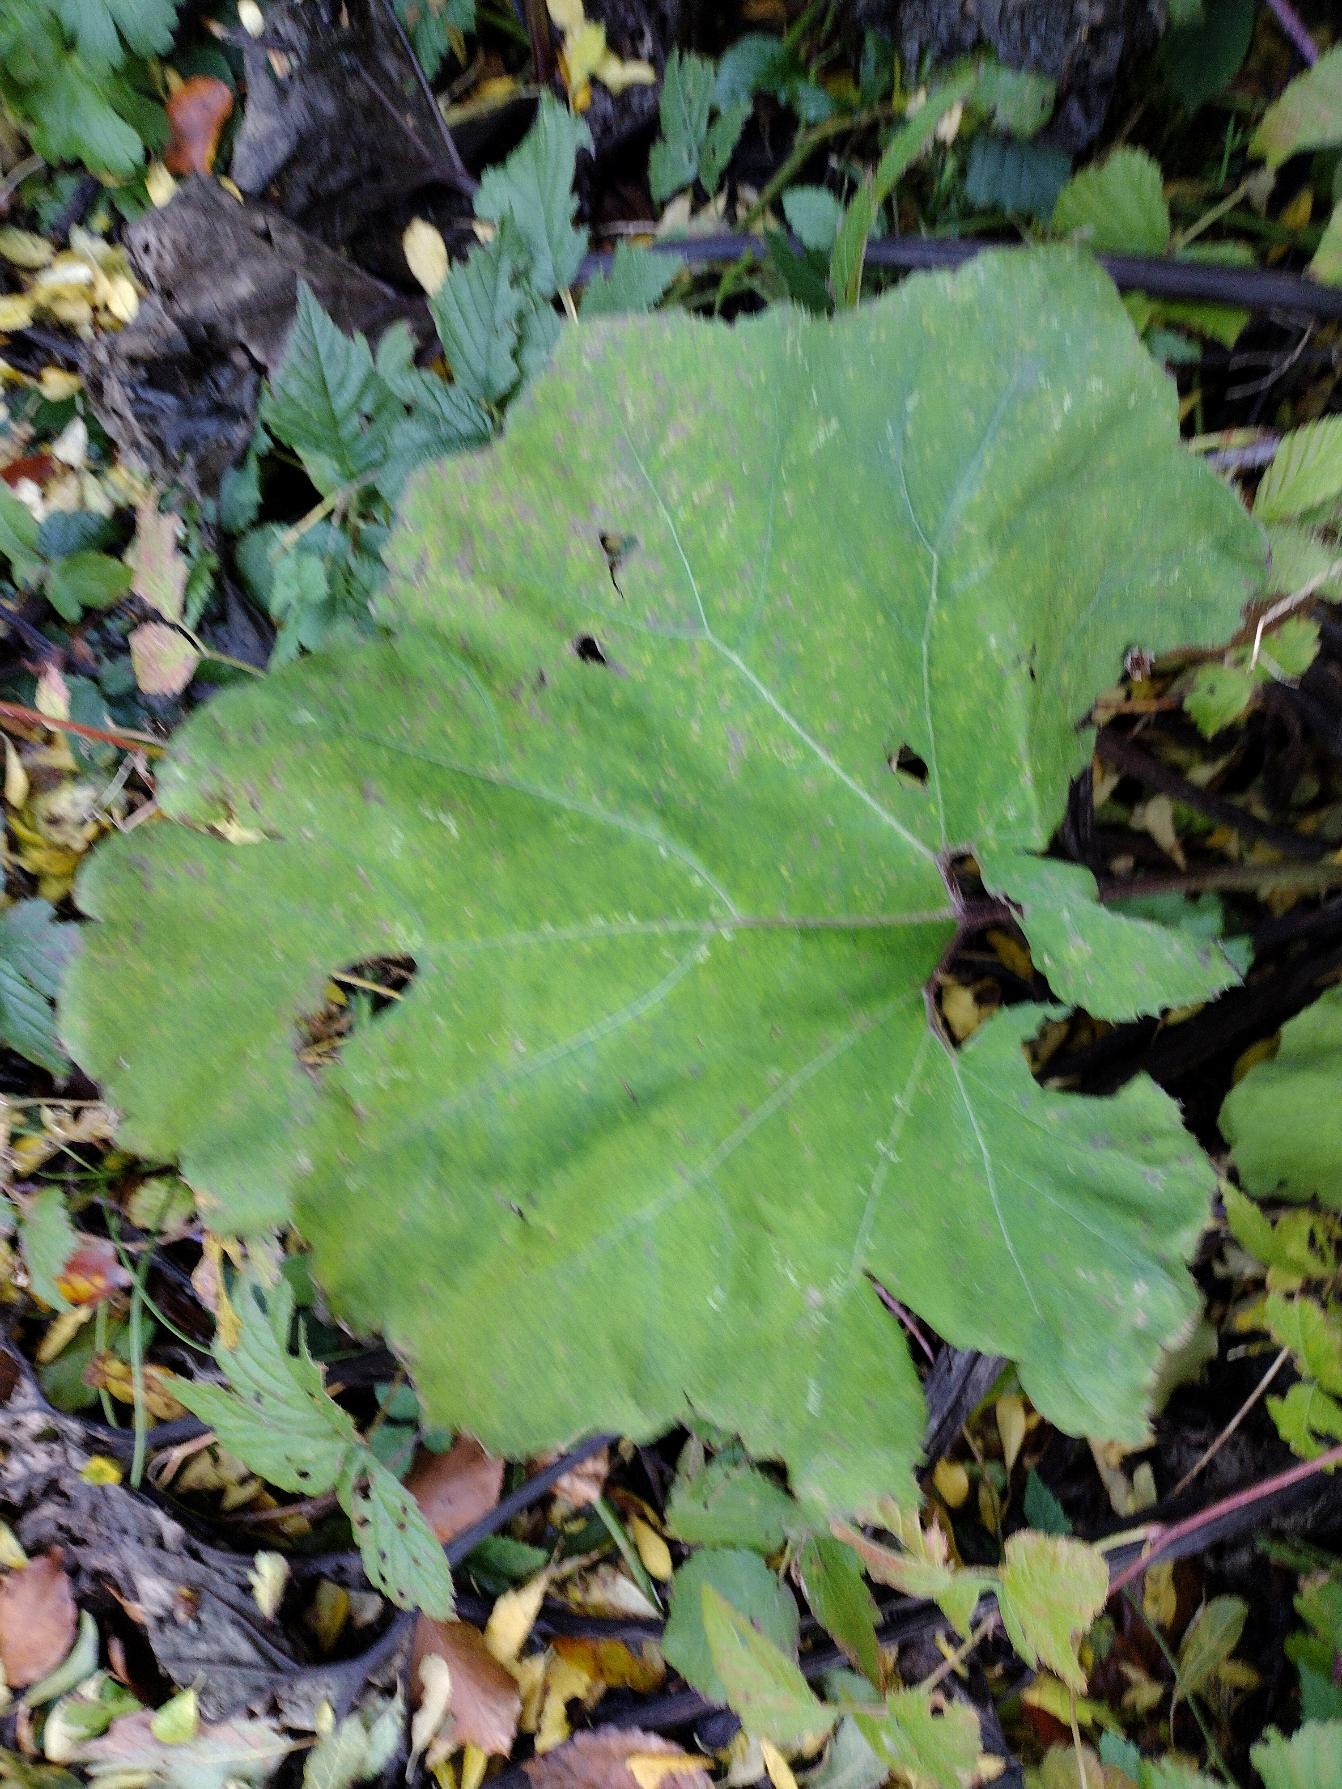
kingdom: Plantae
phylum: Tracheophyta
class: Magnoliopsida
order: Asterales
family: Asteraceae
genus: Petasites
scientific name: Petasites hybridus
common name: Rød hestehov
